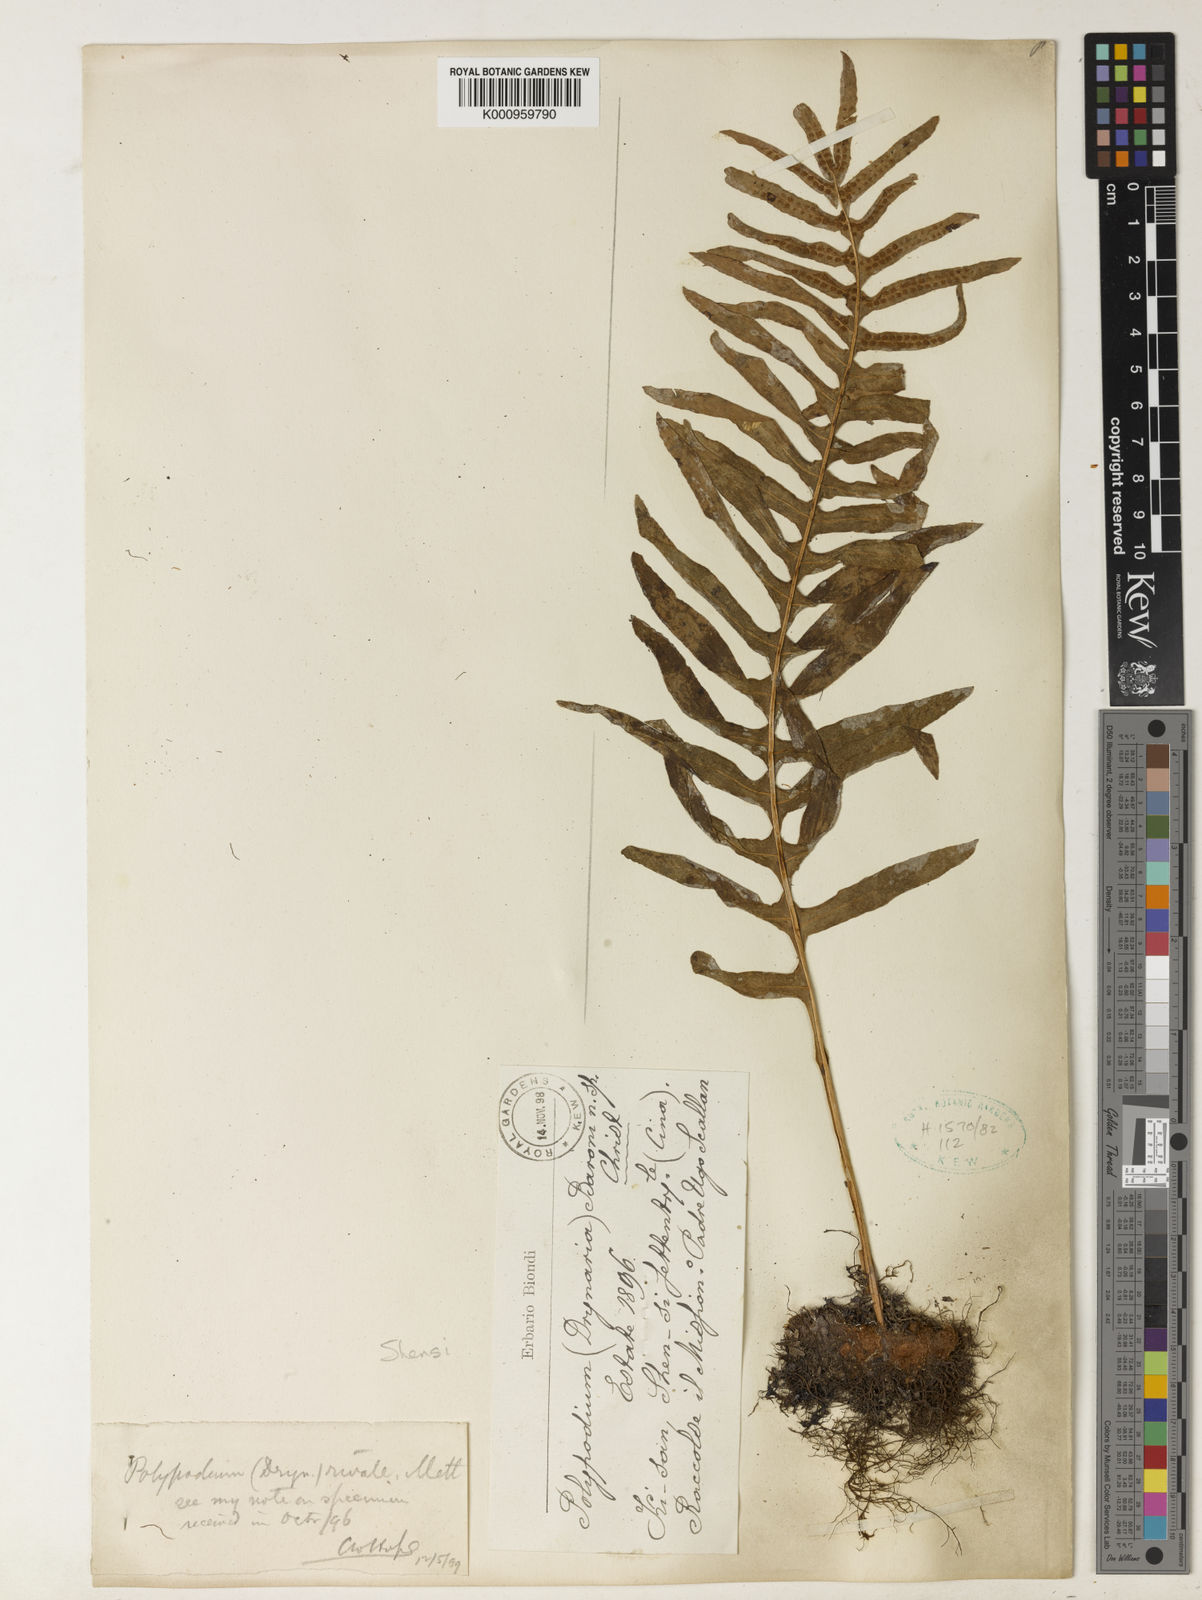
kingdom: Plantae
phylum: Tracheophyta
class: Polypodiopsida
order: Polypodiales
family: Polypodiaceae
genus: Drynaria
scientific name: Drynaria mollis
